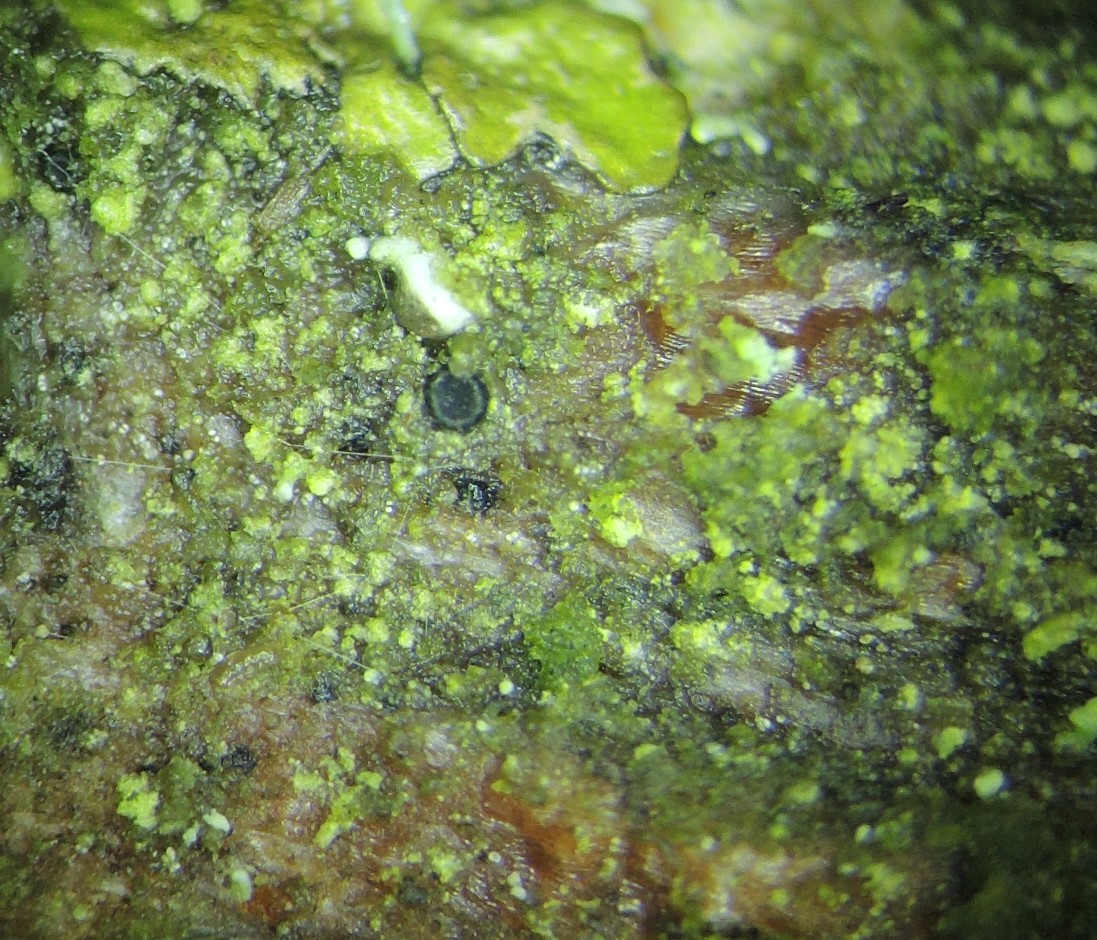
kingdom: Fungi
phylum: Ascomycota
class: Leotiomycetes
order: Helotiales
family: Hyphodiscaceae
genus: Venturiocistella
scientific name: Venturiocistella pini
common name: fyrre-tveskægskive
